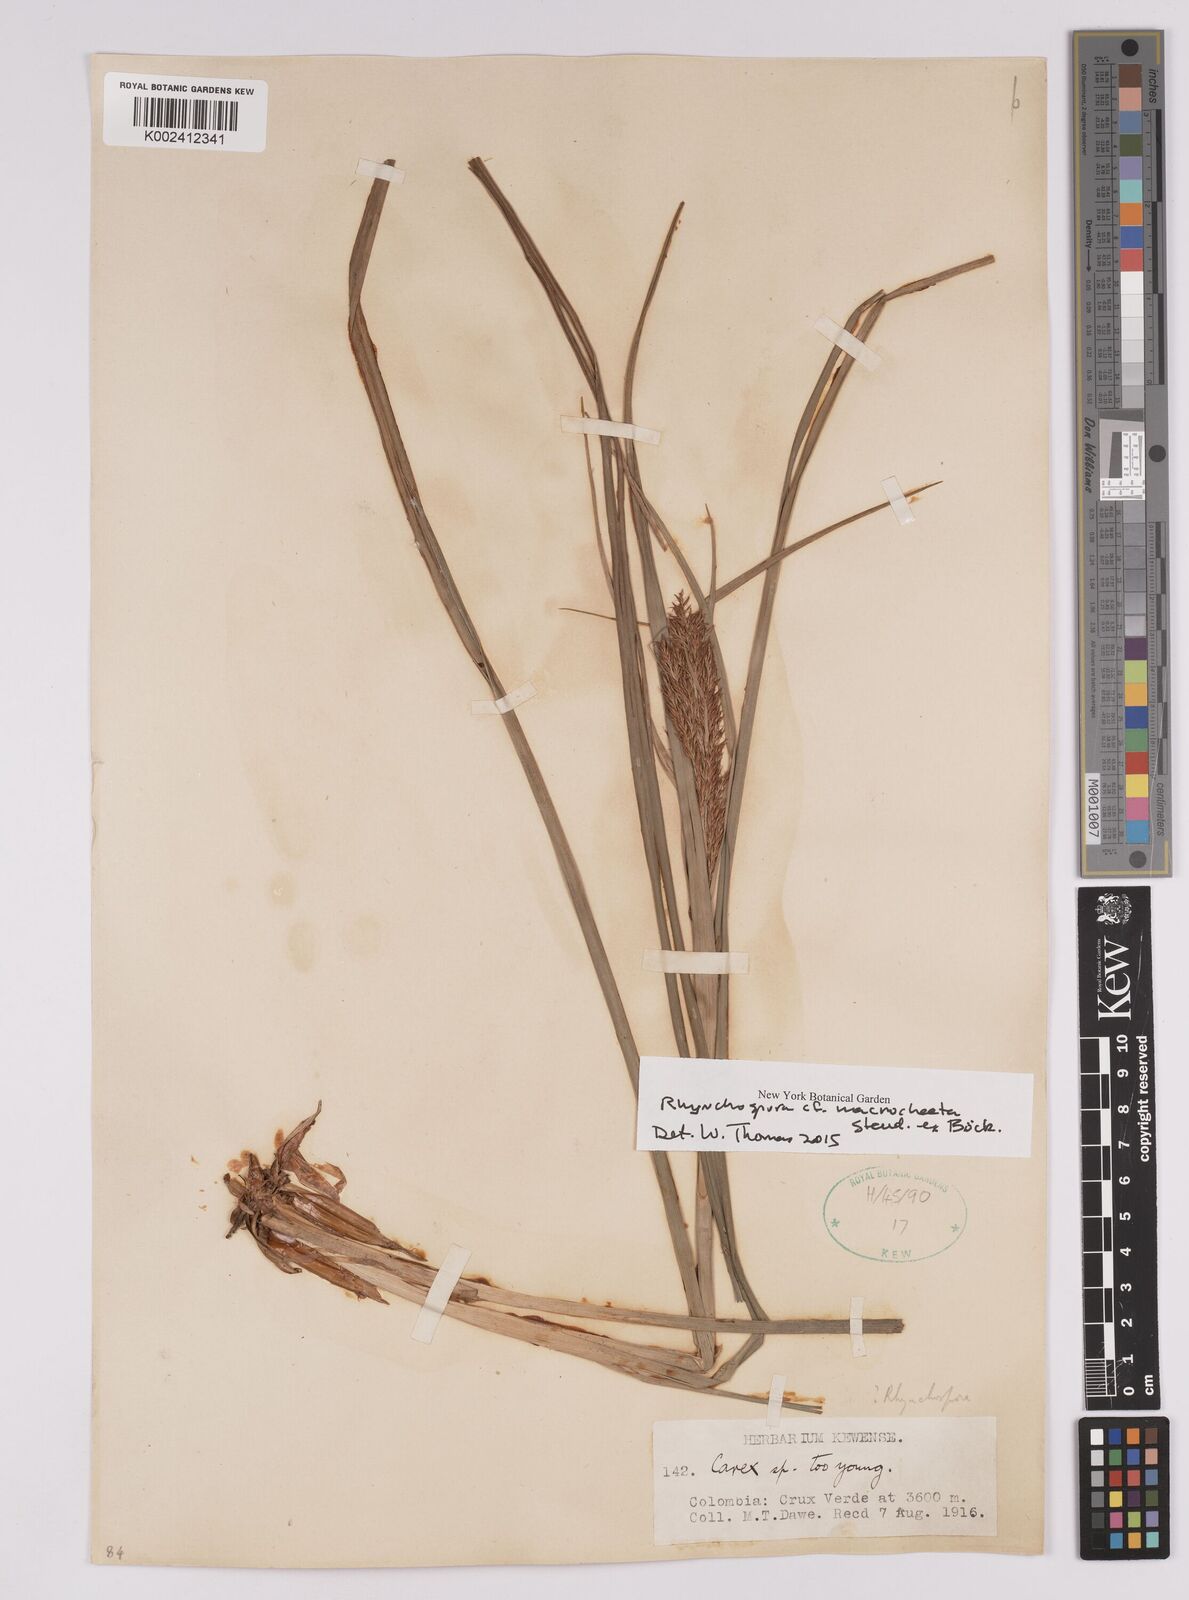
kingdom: Plantae
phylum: Tracheophyta
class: Liliopsida
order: Poales
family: Cyperaceae
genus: Rhynchospora
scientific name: Rhynchospora macrochaeta
